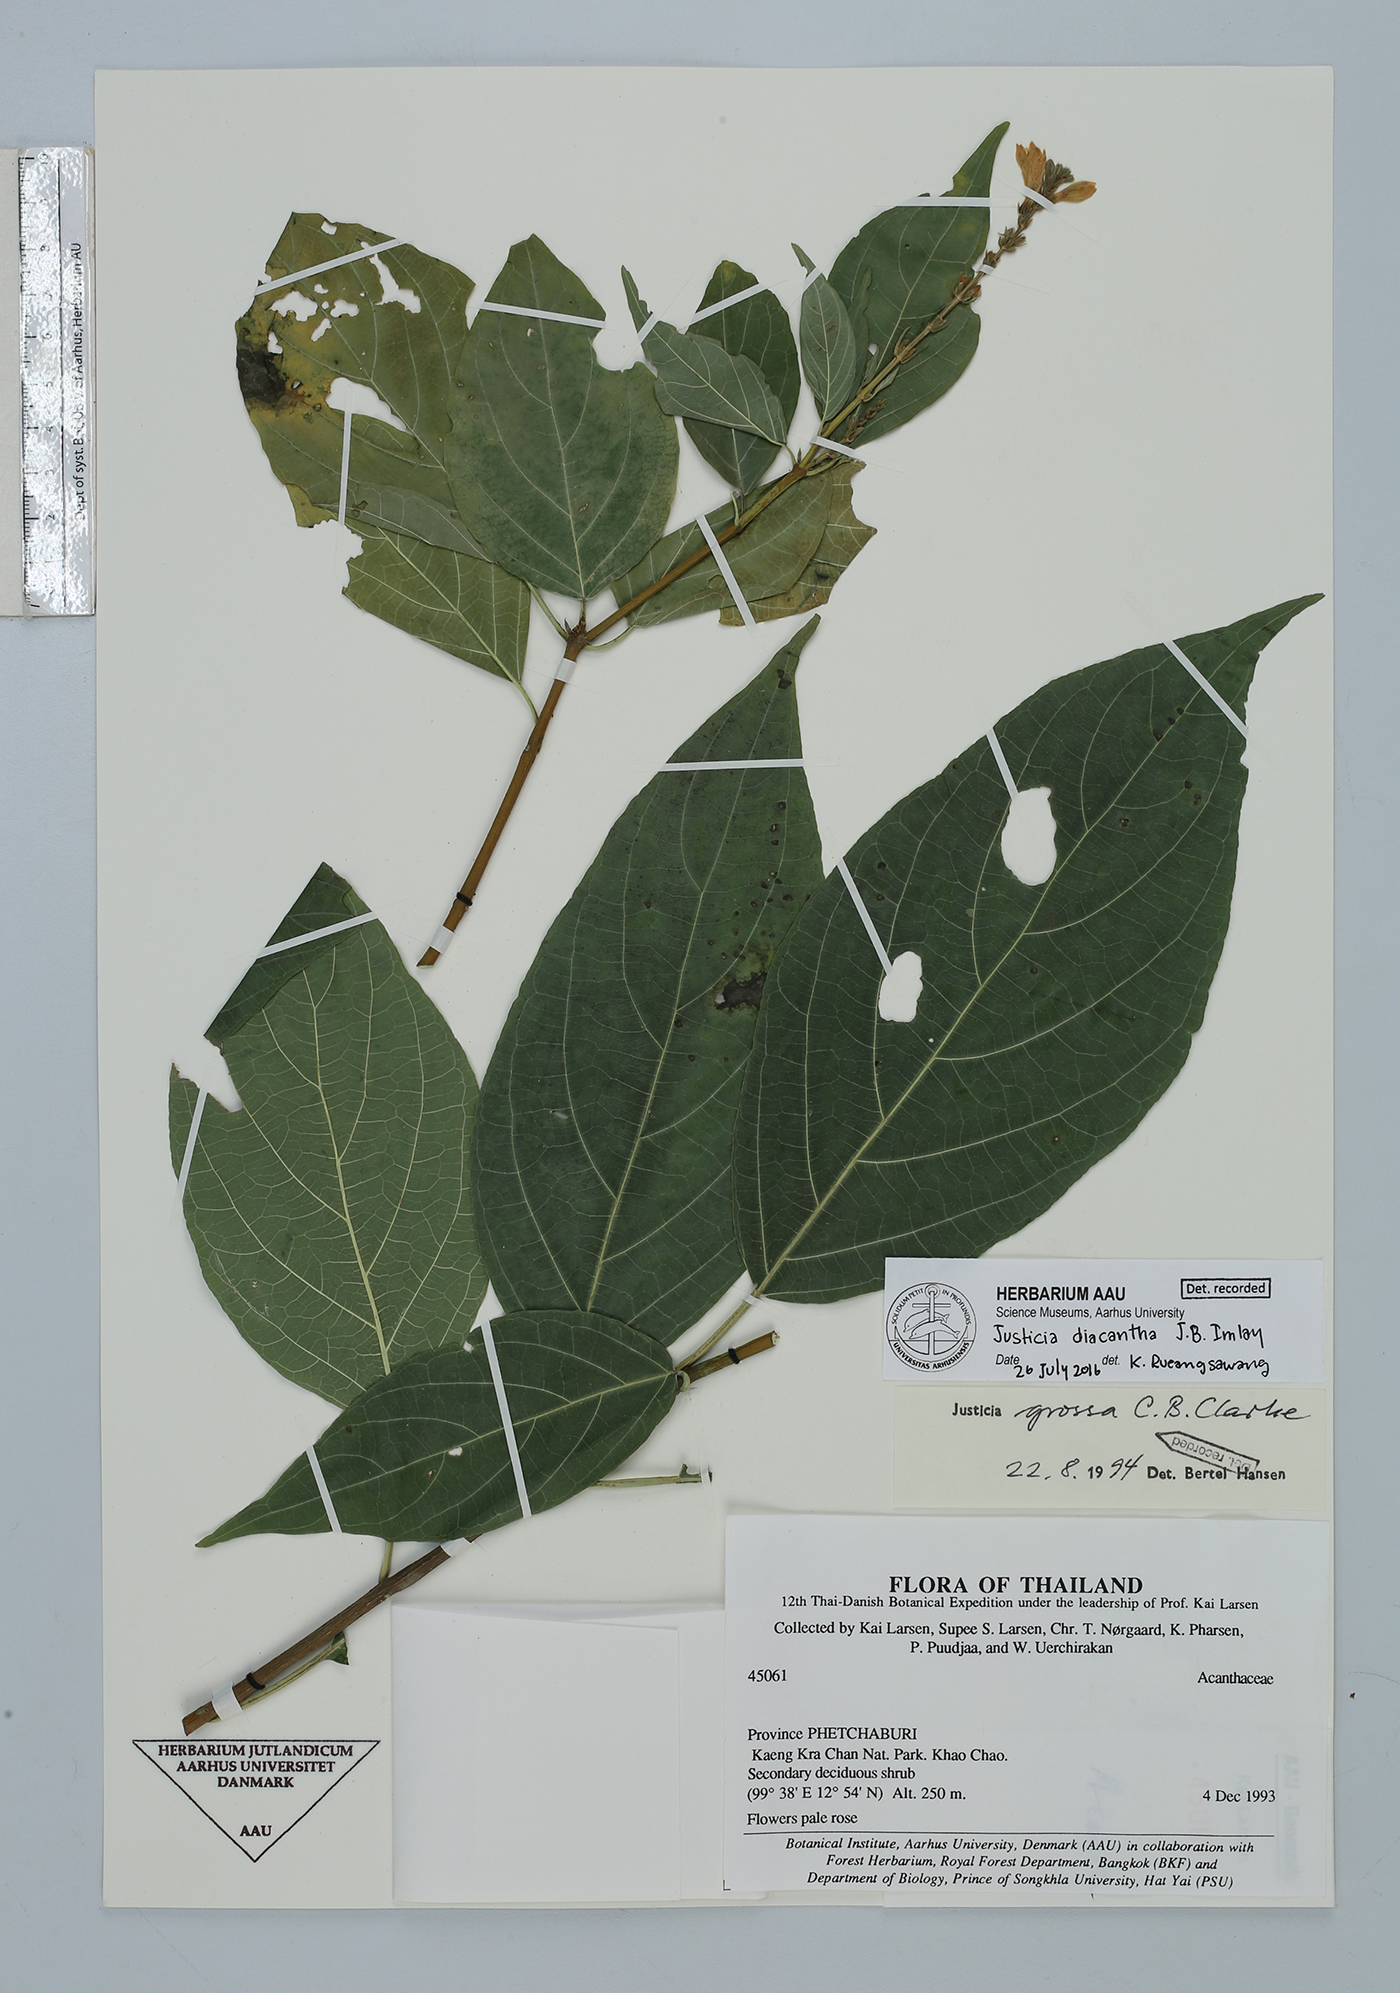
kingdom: Plantae
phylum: Tracheophyta
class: Magnoliopsida
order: Lamiales
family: Acanthaceae
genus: Justicia
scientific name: Justicia diacantha
